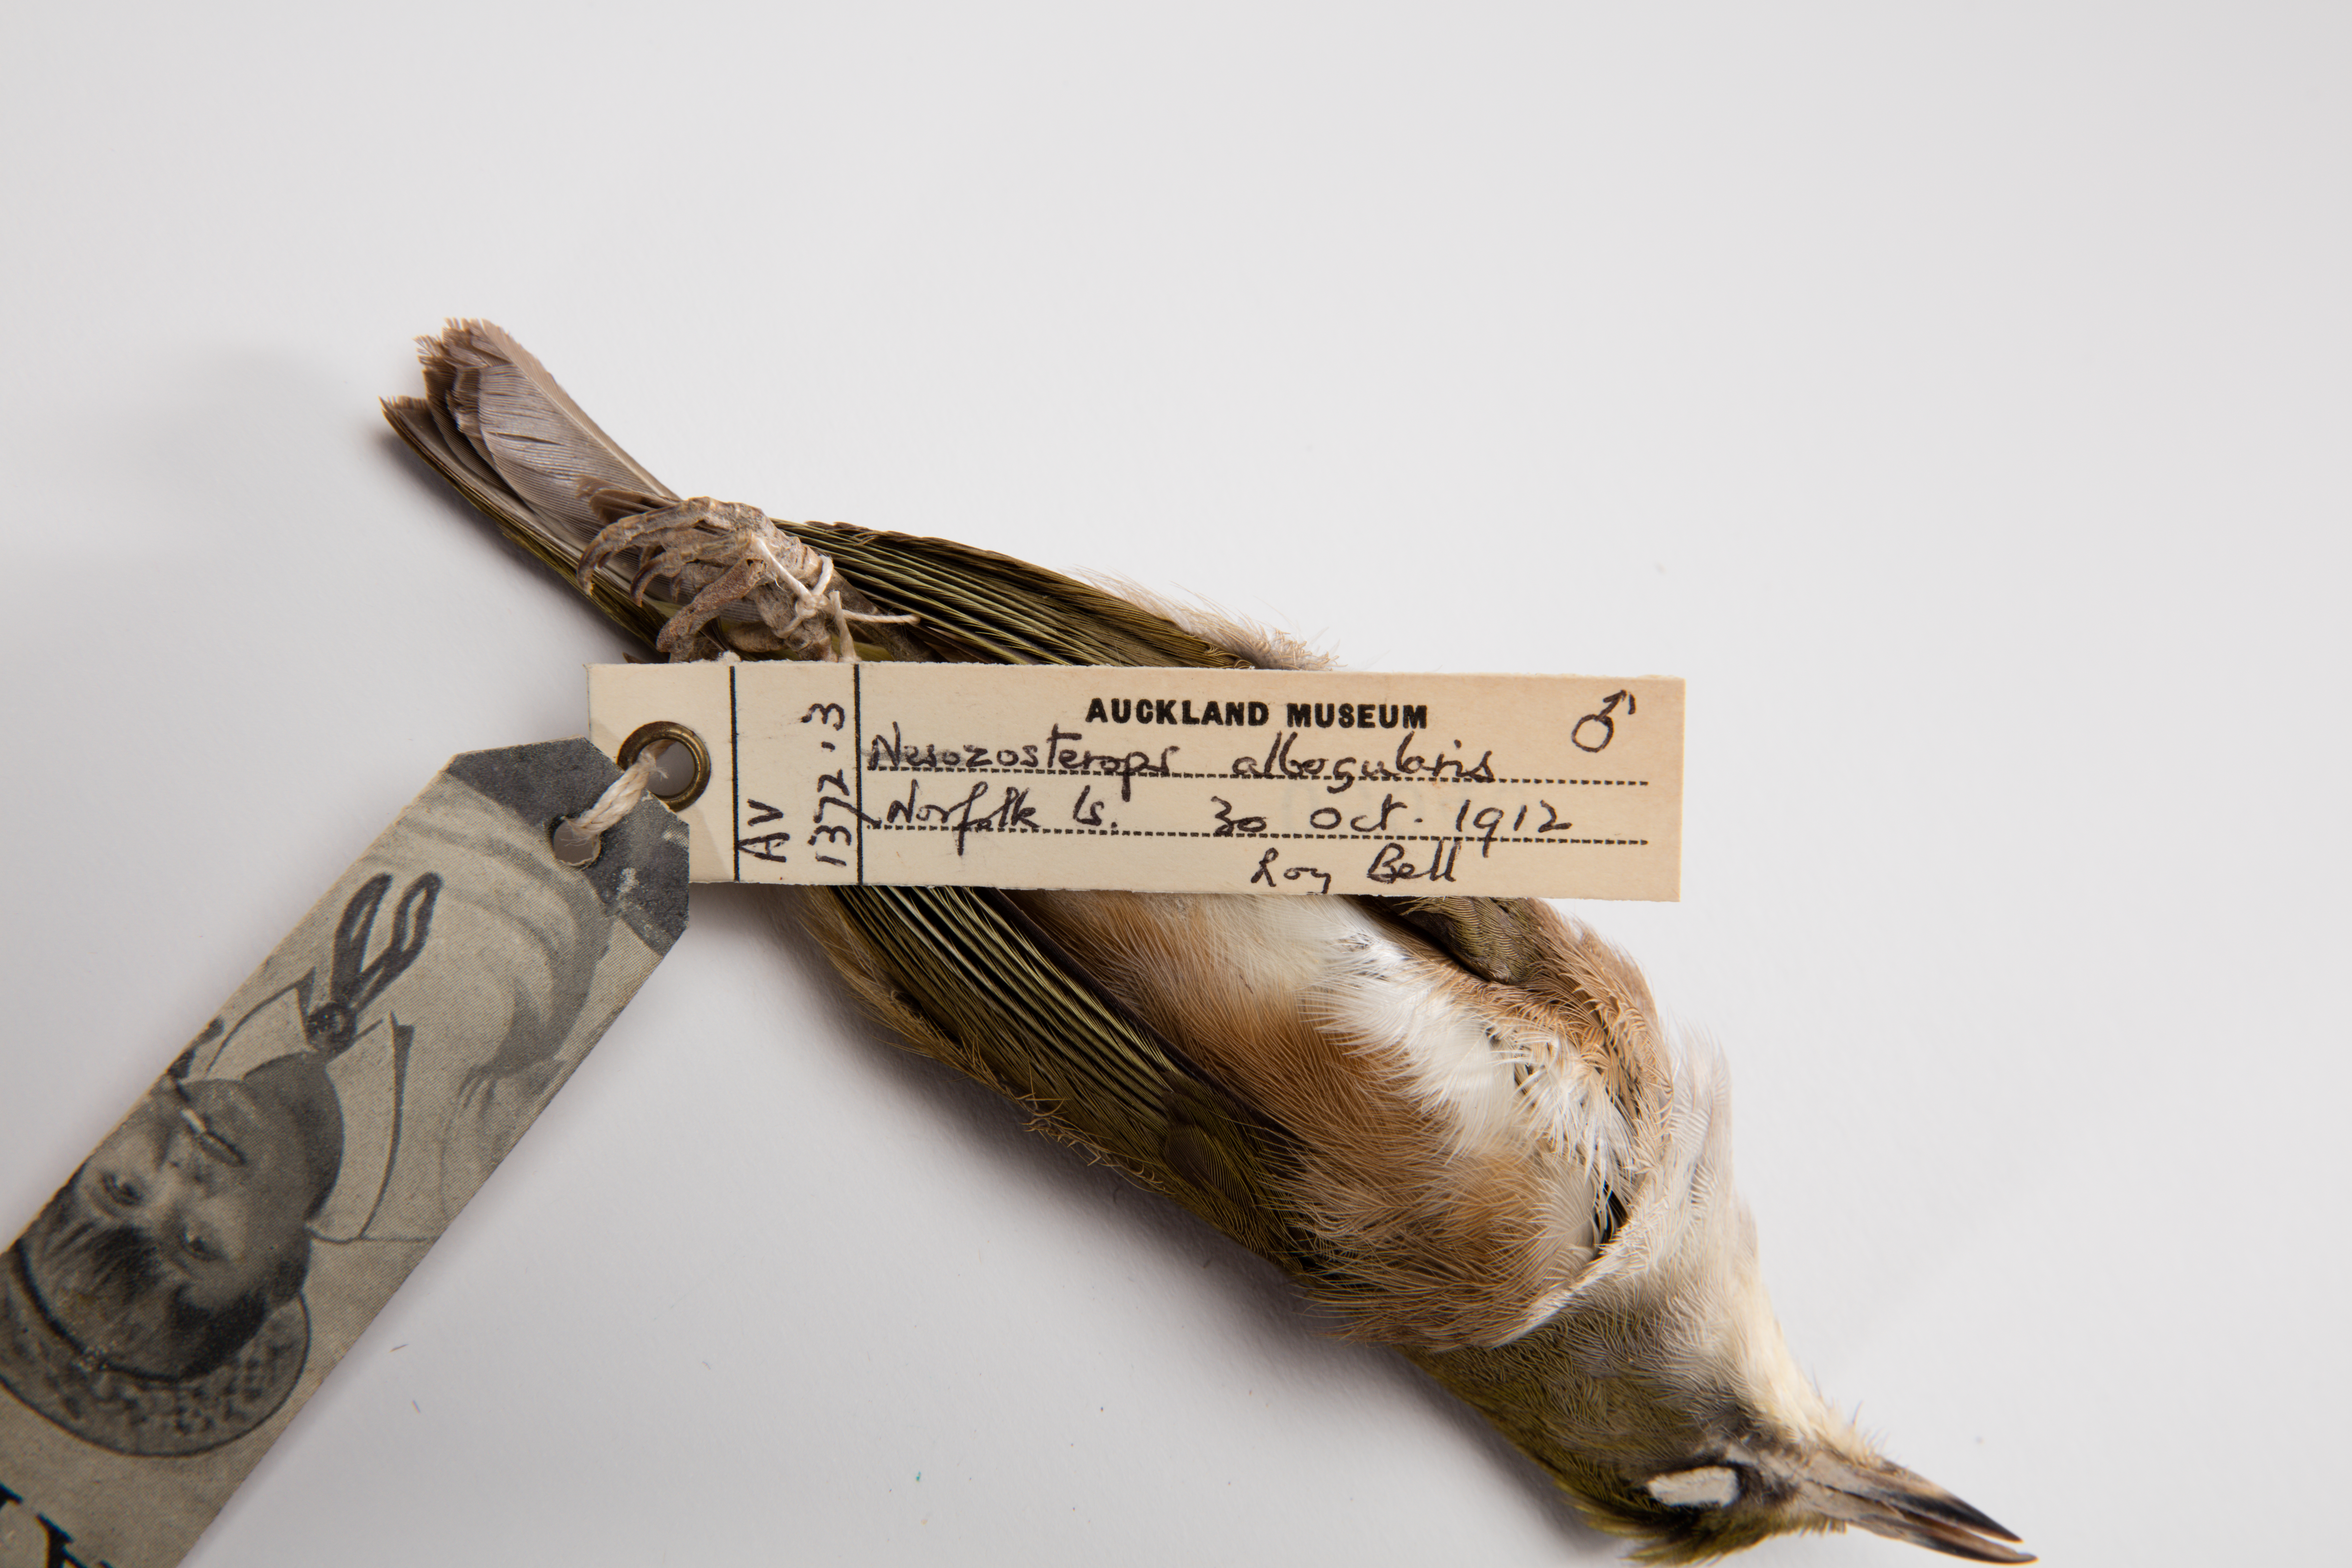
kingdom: Animalia
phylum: Chordata
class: Aves
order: Passeriformes
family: Zosteropidae
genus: Zosterops
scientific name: Zosterops albogularis
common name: White-chested white-eye
